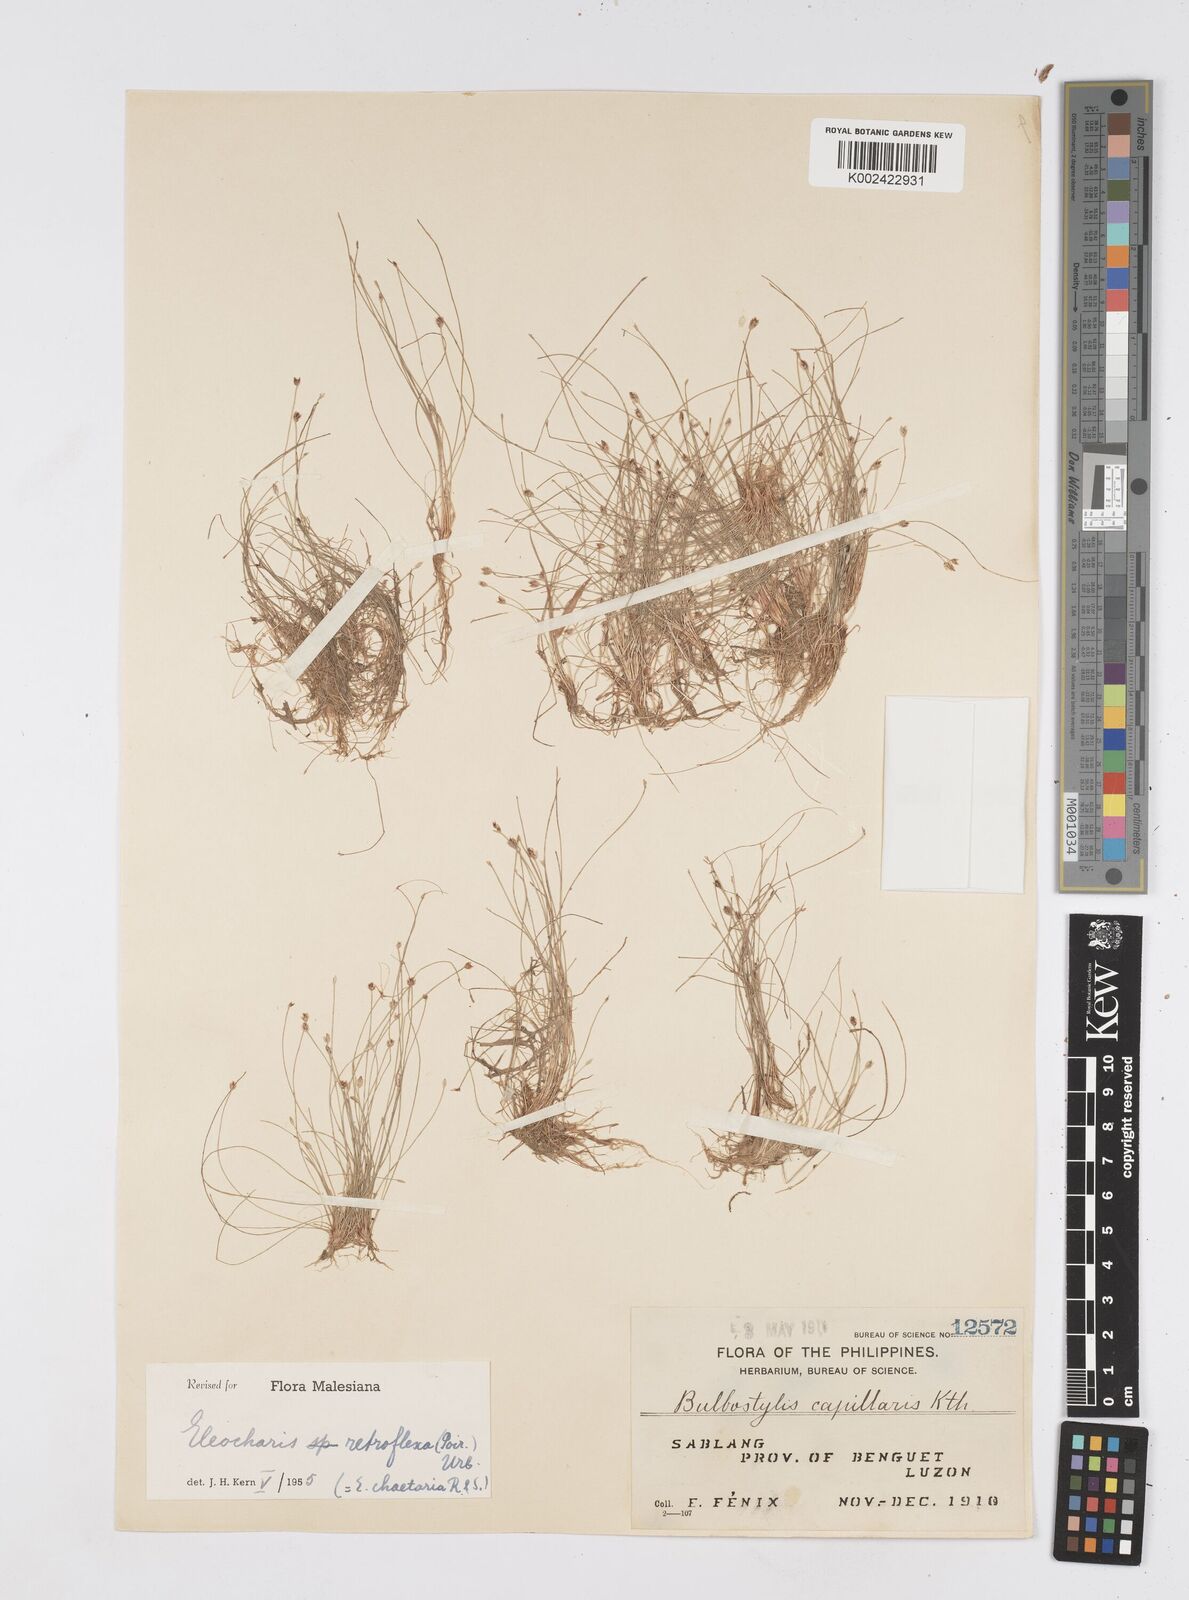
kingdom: Plantae
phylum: Tracheophyta
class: Liliopsida
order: Poales
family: Cyperaceae
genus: Eleocharis
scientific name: Eleocharis retroflexa
